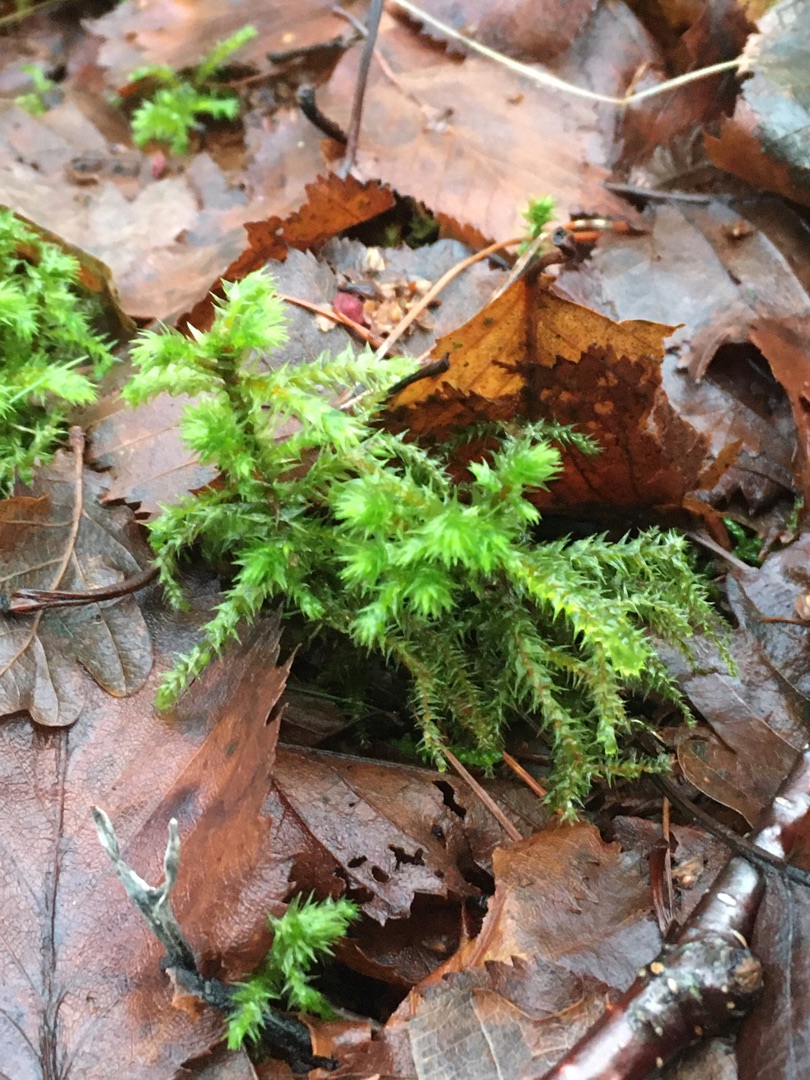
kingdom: Plantae
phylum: Bryophyta
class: Bryopsida
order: Hypnales
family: Hylocomiaceae
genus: Hylocomiadelphus
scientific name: Hylocomiadelphus triquetrus
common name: Stor kransemos
